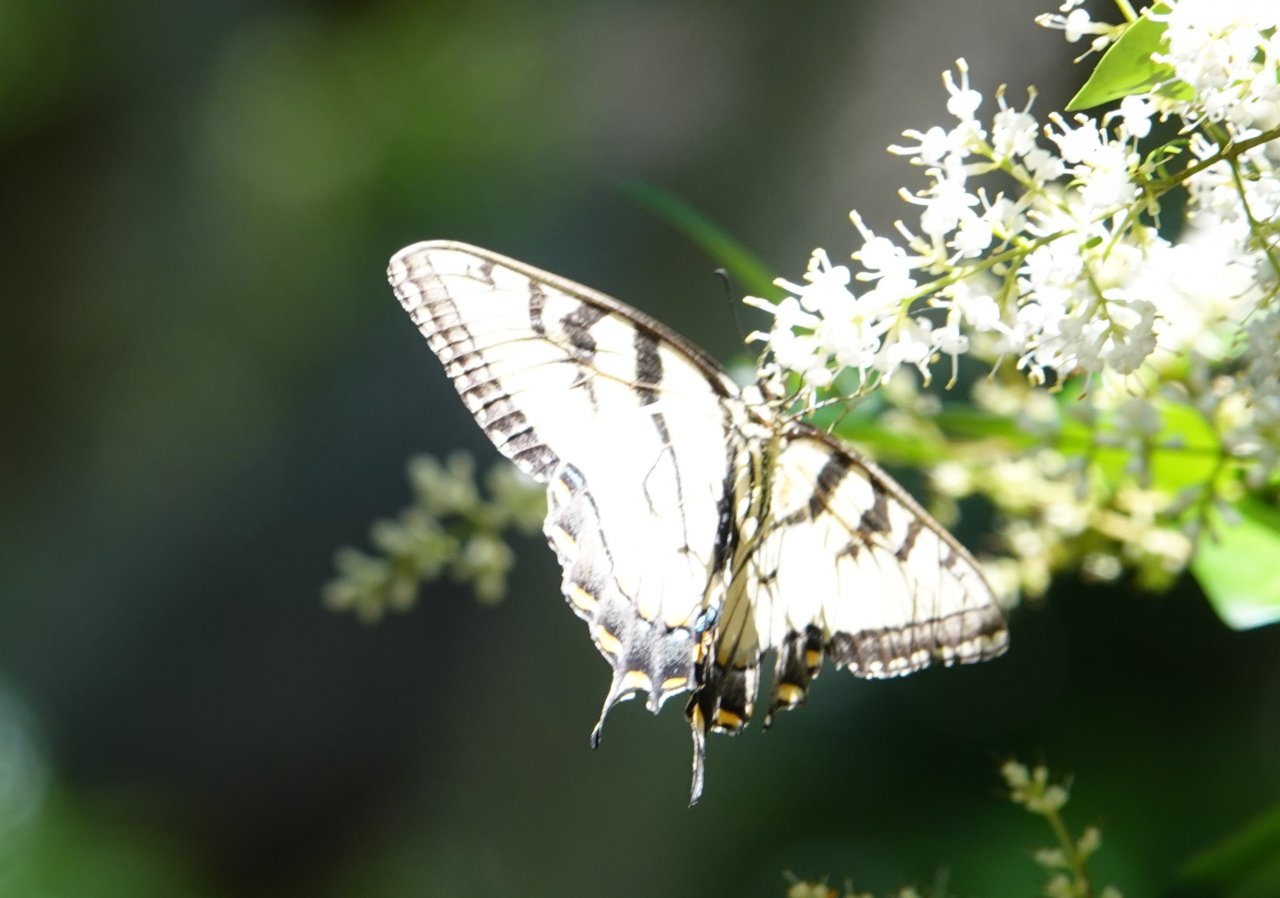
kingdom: Animalia
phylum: Arthropoda
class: Insecta
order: Lepidoptera
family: Papilionidae
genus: Pterourus
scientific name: Pterourus glaucus
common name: Eastern Tiger Swallowtail
